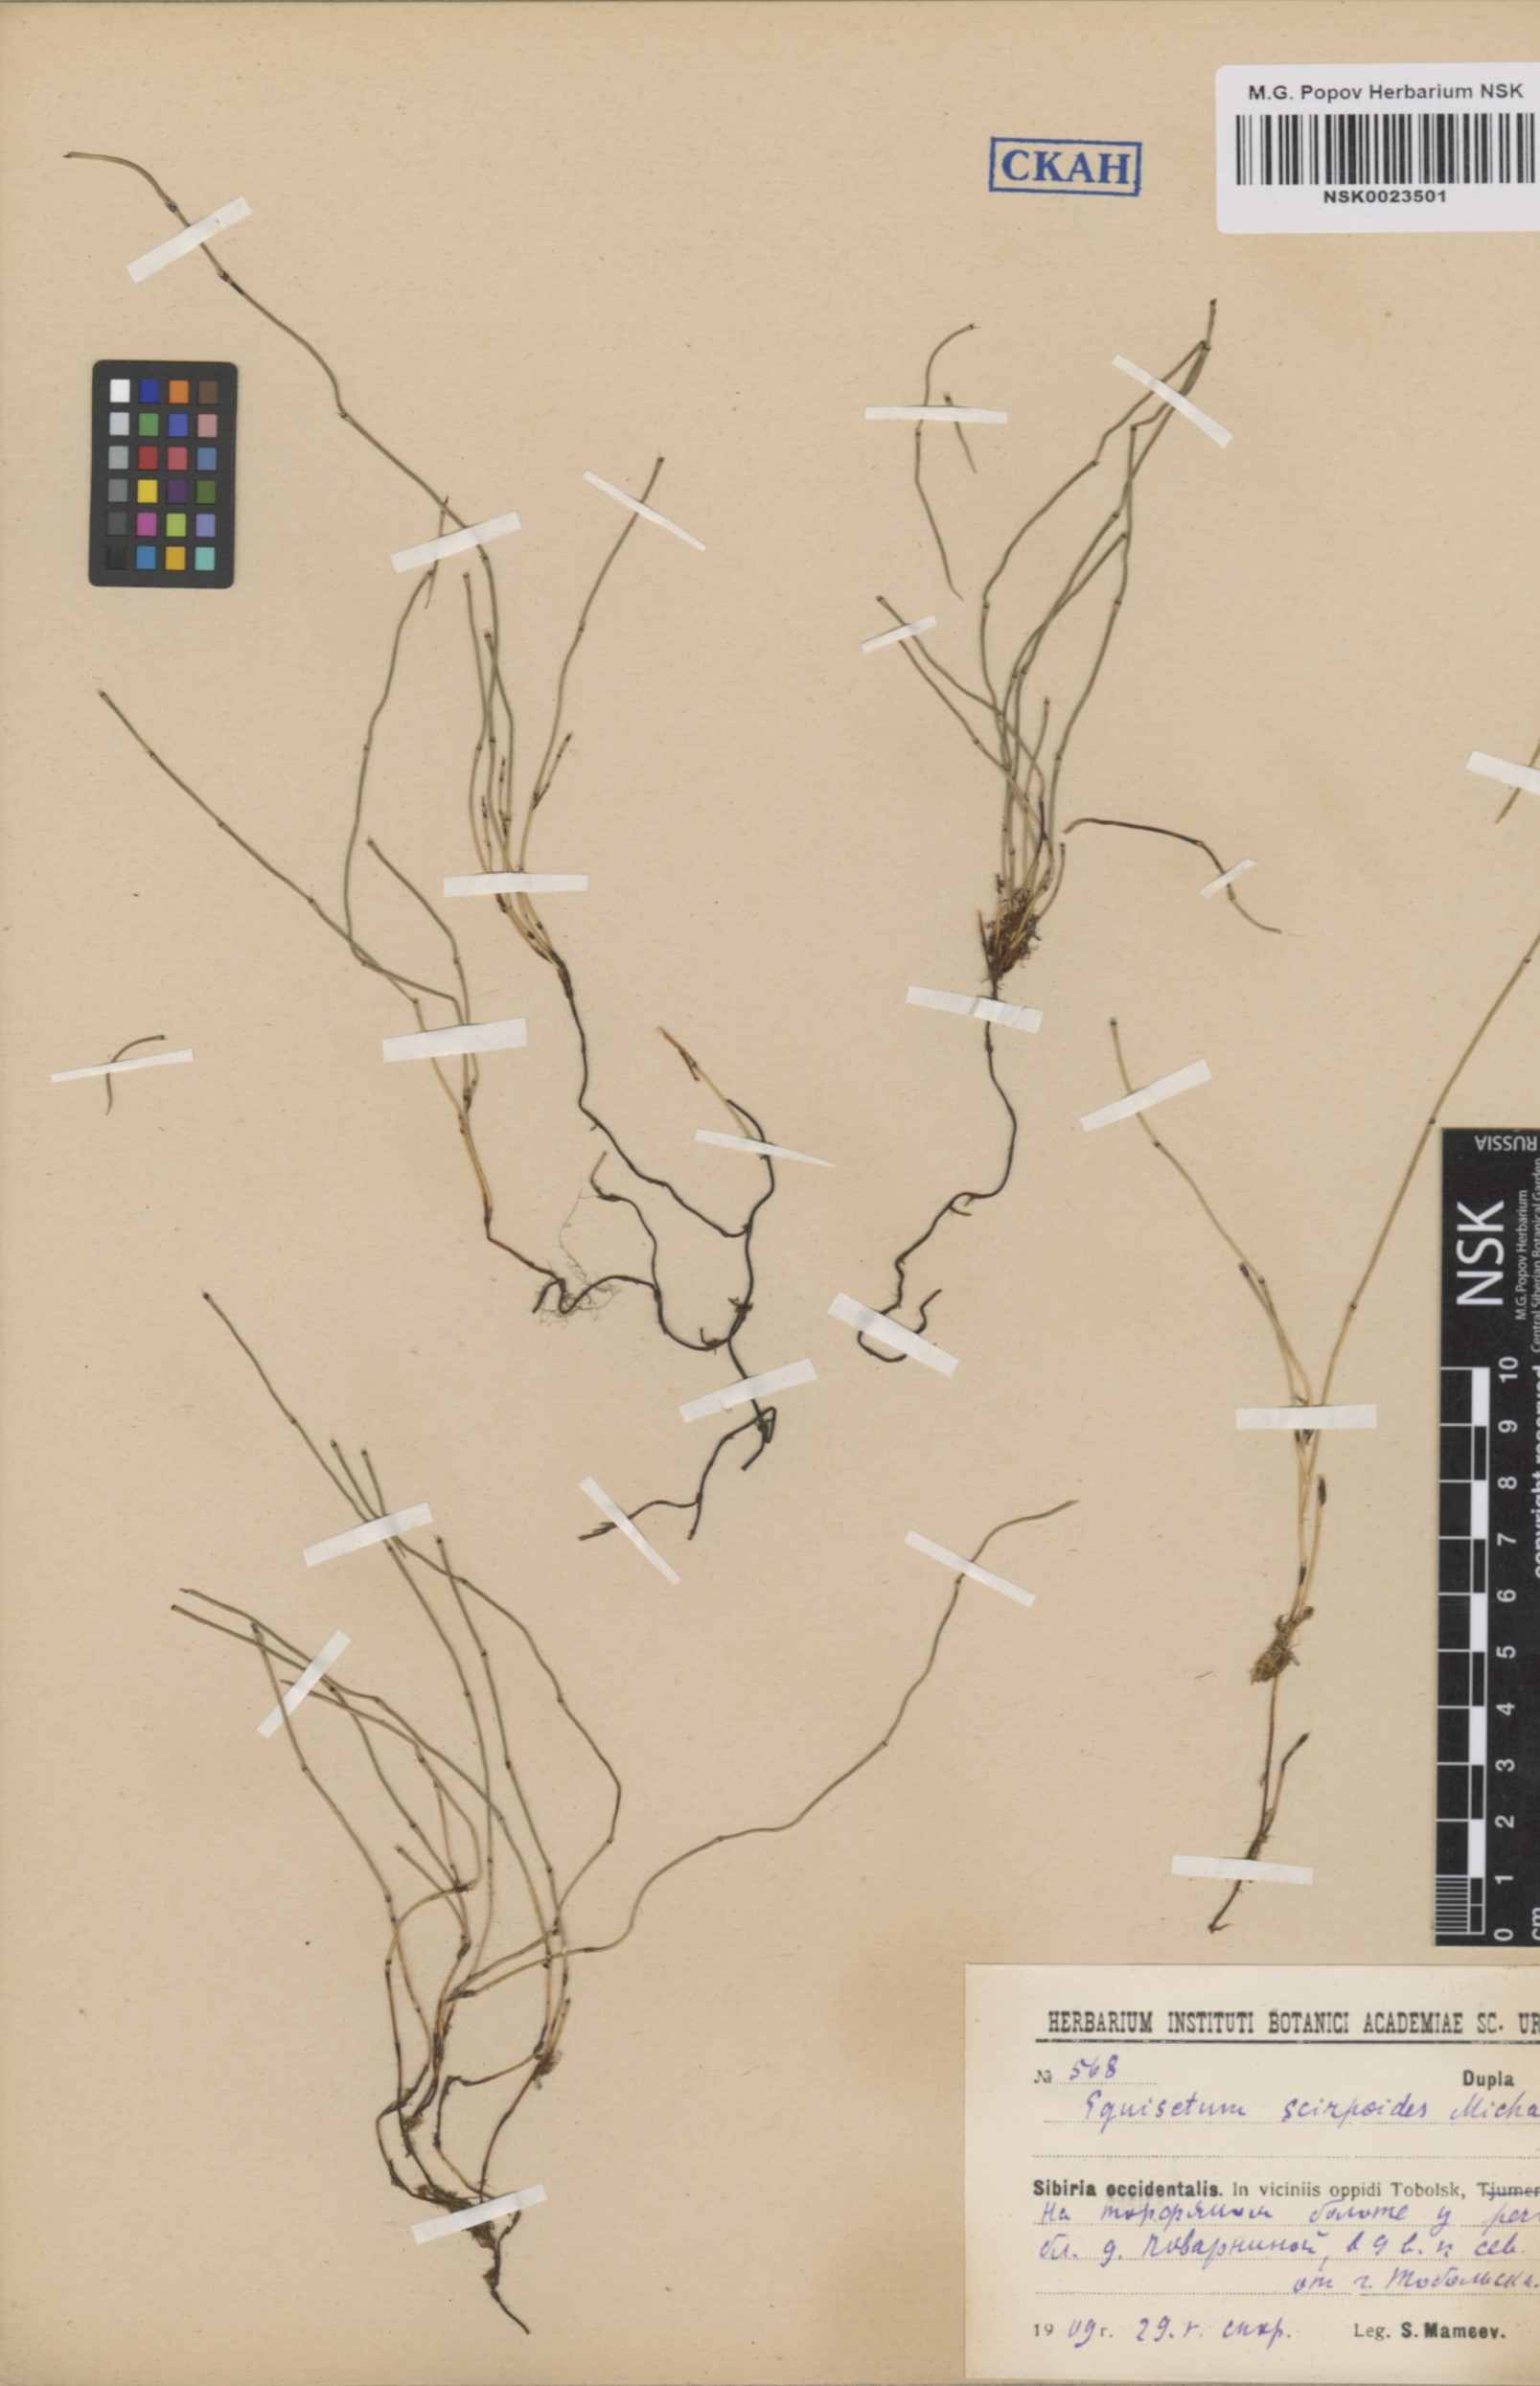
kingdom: Plantae
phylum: Tracheophyta
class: Polypodiopsida
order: Equisetales
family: Equisetaceae
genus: Equisetum
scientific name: Equisetum scirpoides
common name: Delicate horsetail
